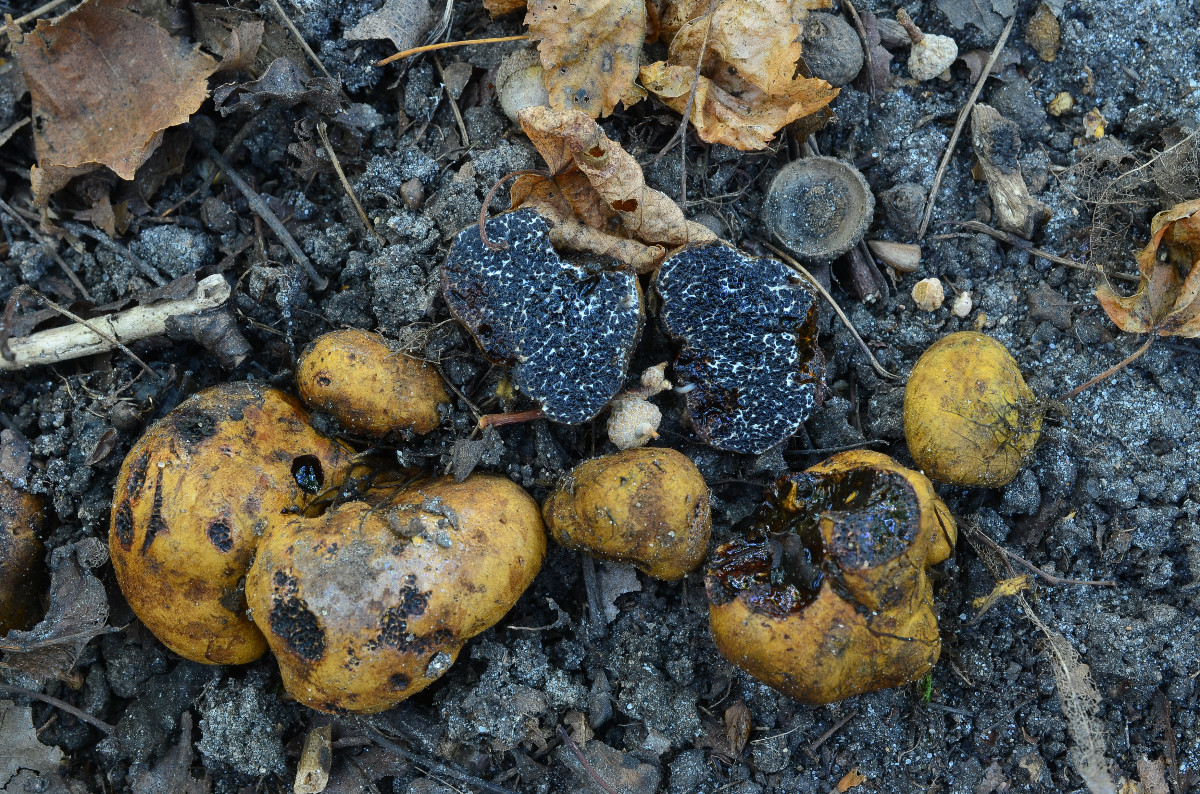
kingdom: Fungi
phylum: Basidiomycota
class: Agaricomycetes
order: Boletales
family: Paxillaceae
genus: Melanogaster
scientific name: Melanogaster broomeanus
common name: broget slimtrøffel
